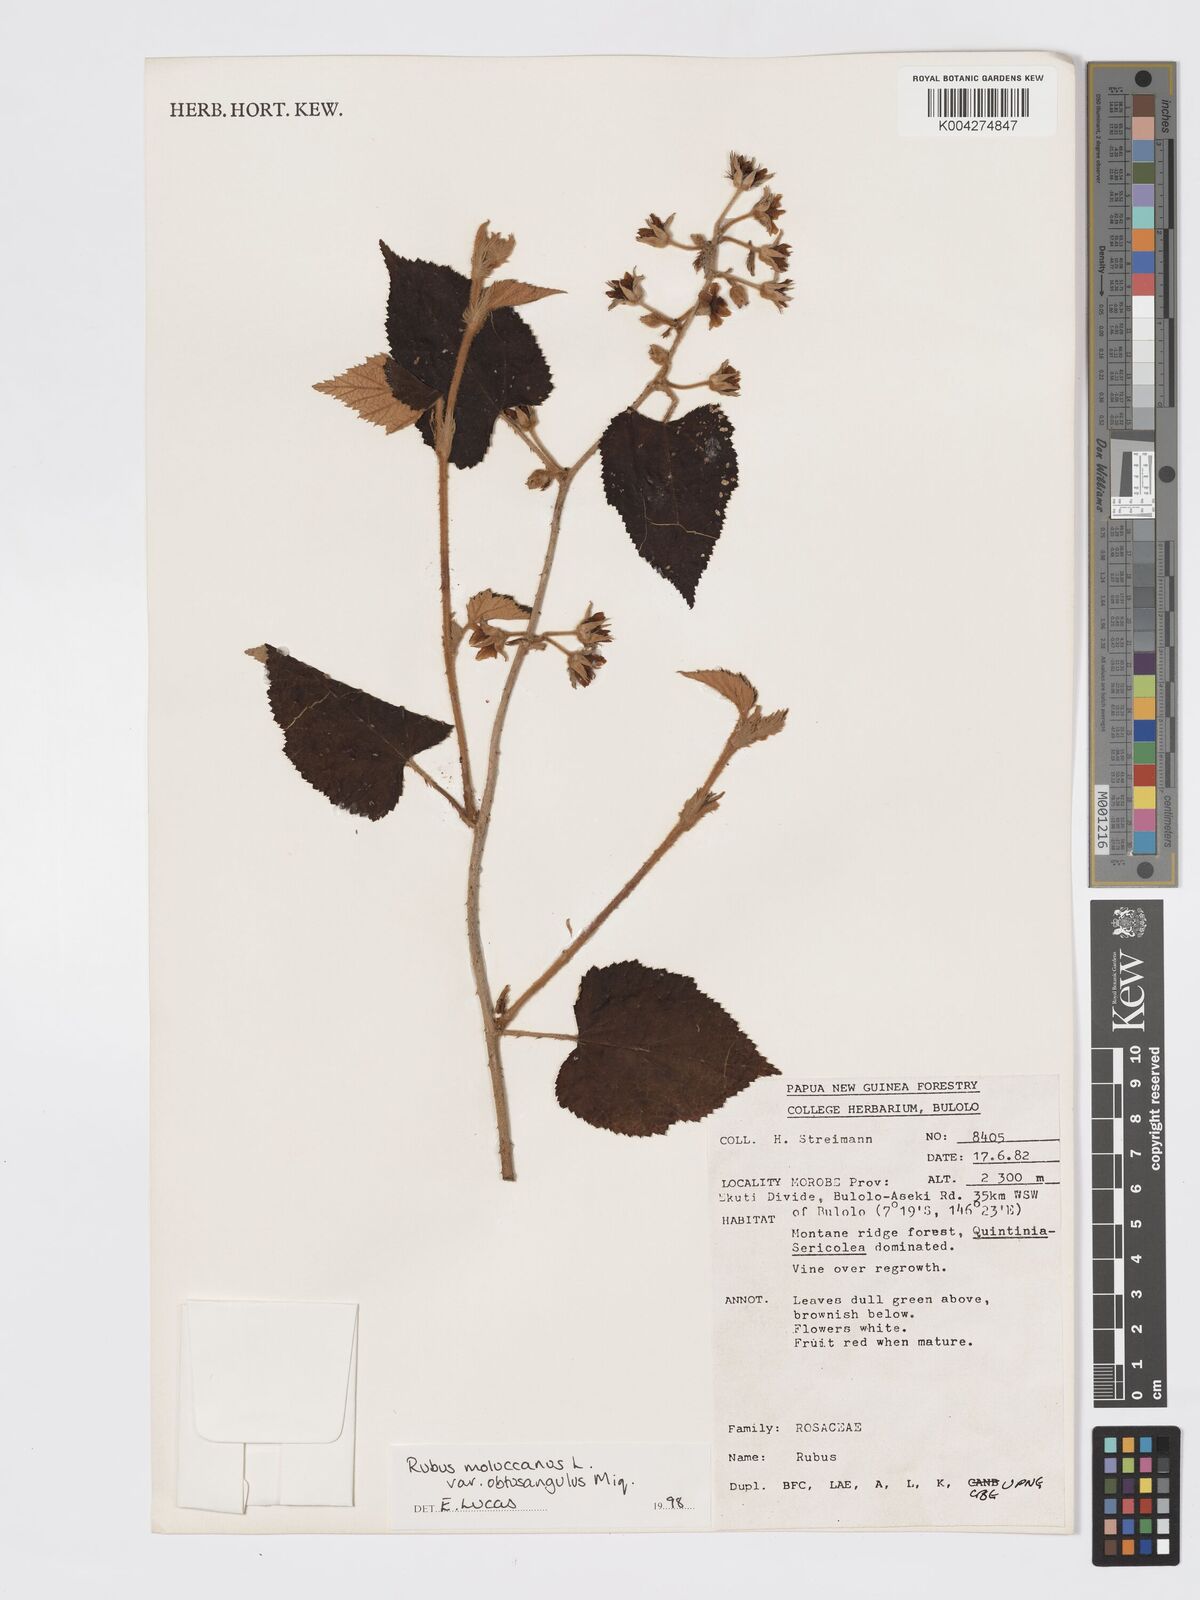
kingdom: Plantae
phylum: Tracheophyta
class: Magnoliopsida
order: Rosales
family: Rosaceae
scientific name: Rosaceae
